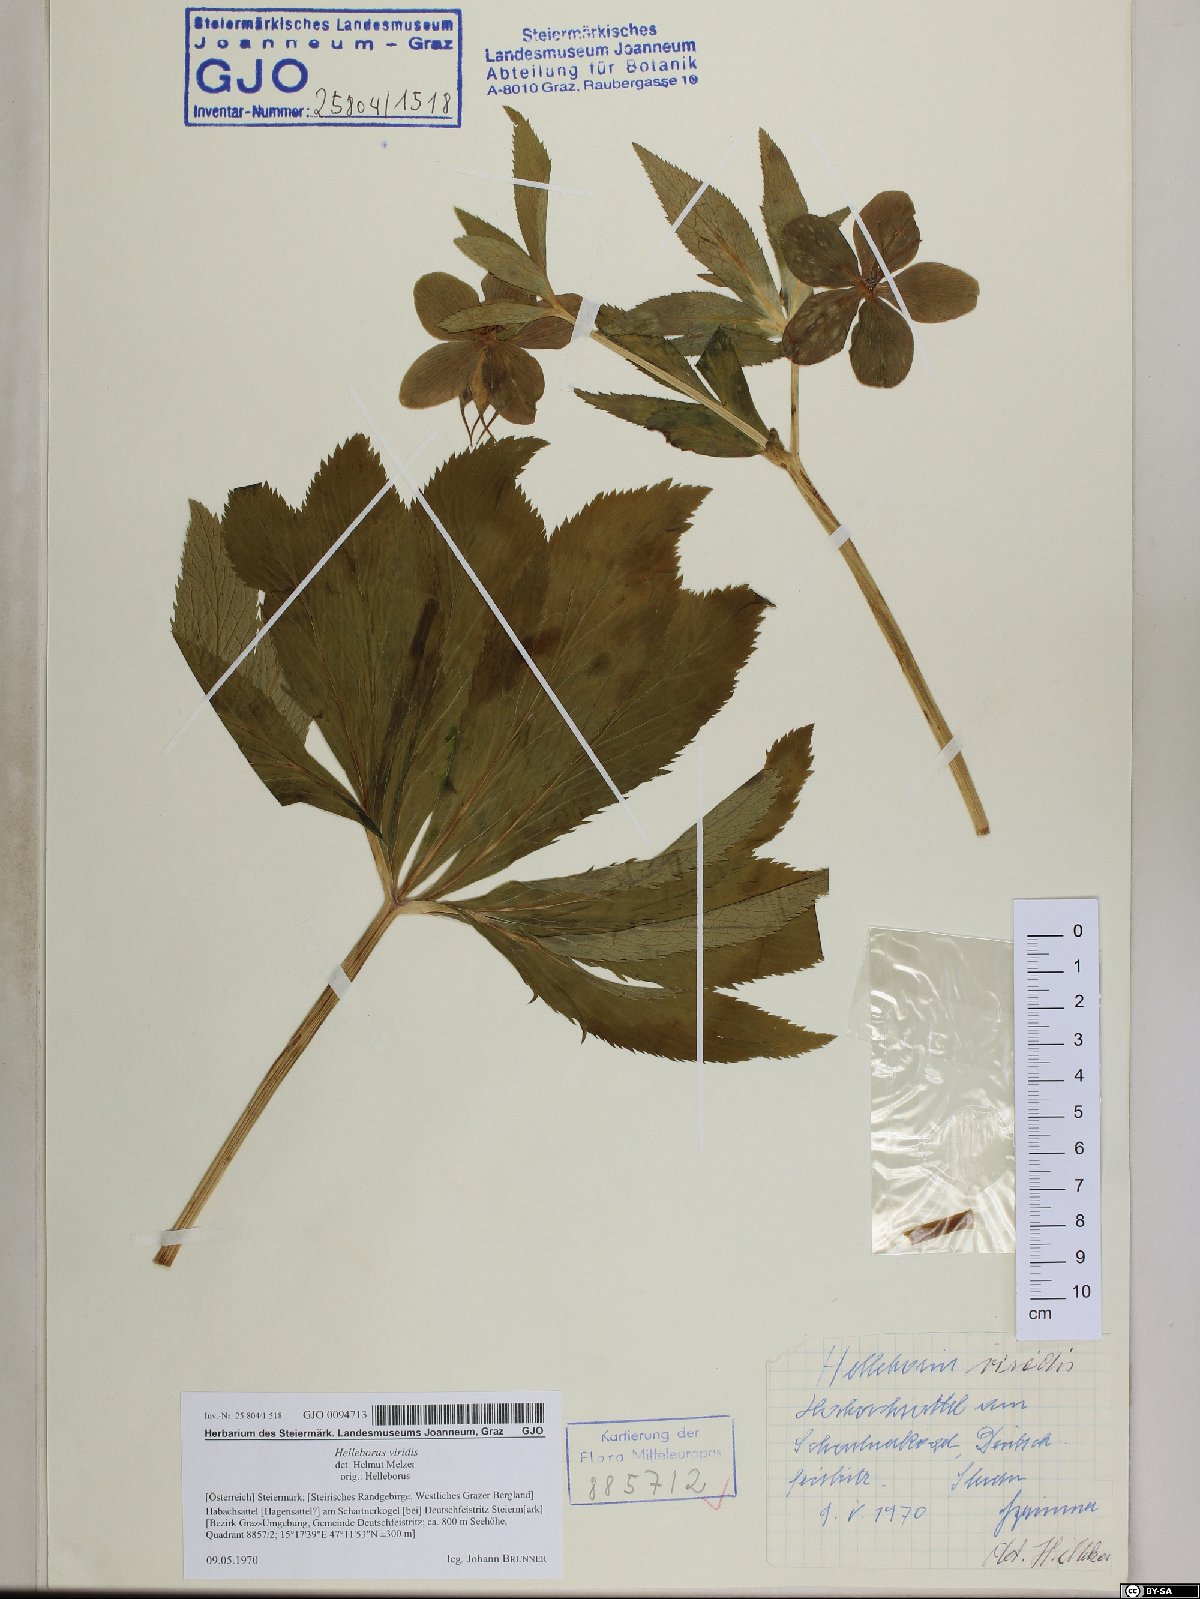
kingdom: Plantae
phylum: Tracheophyta
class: Magnoliopsida
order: Ranunculales
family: Ranunculaceae
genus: Helleborus
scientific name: Helleborus viridis
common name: Green hellebore
